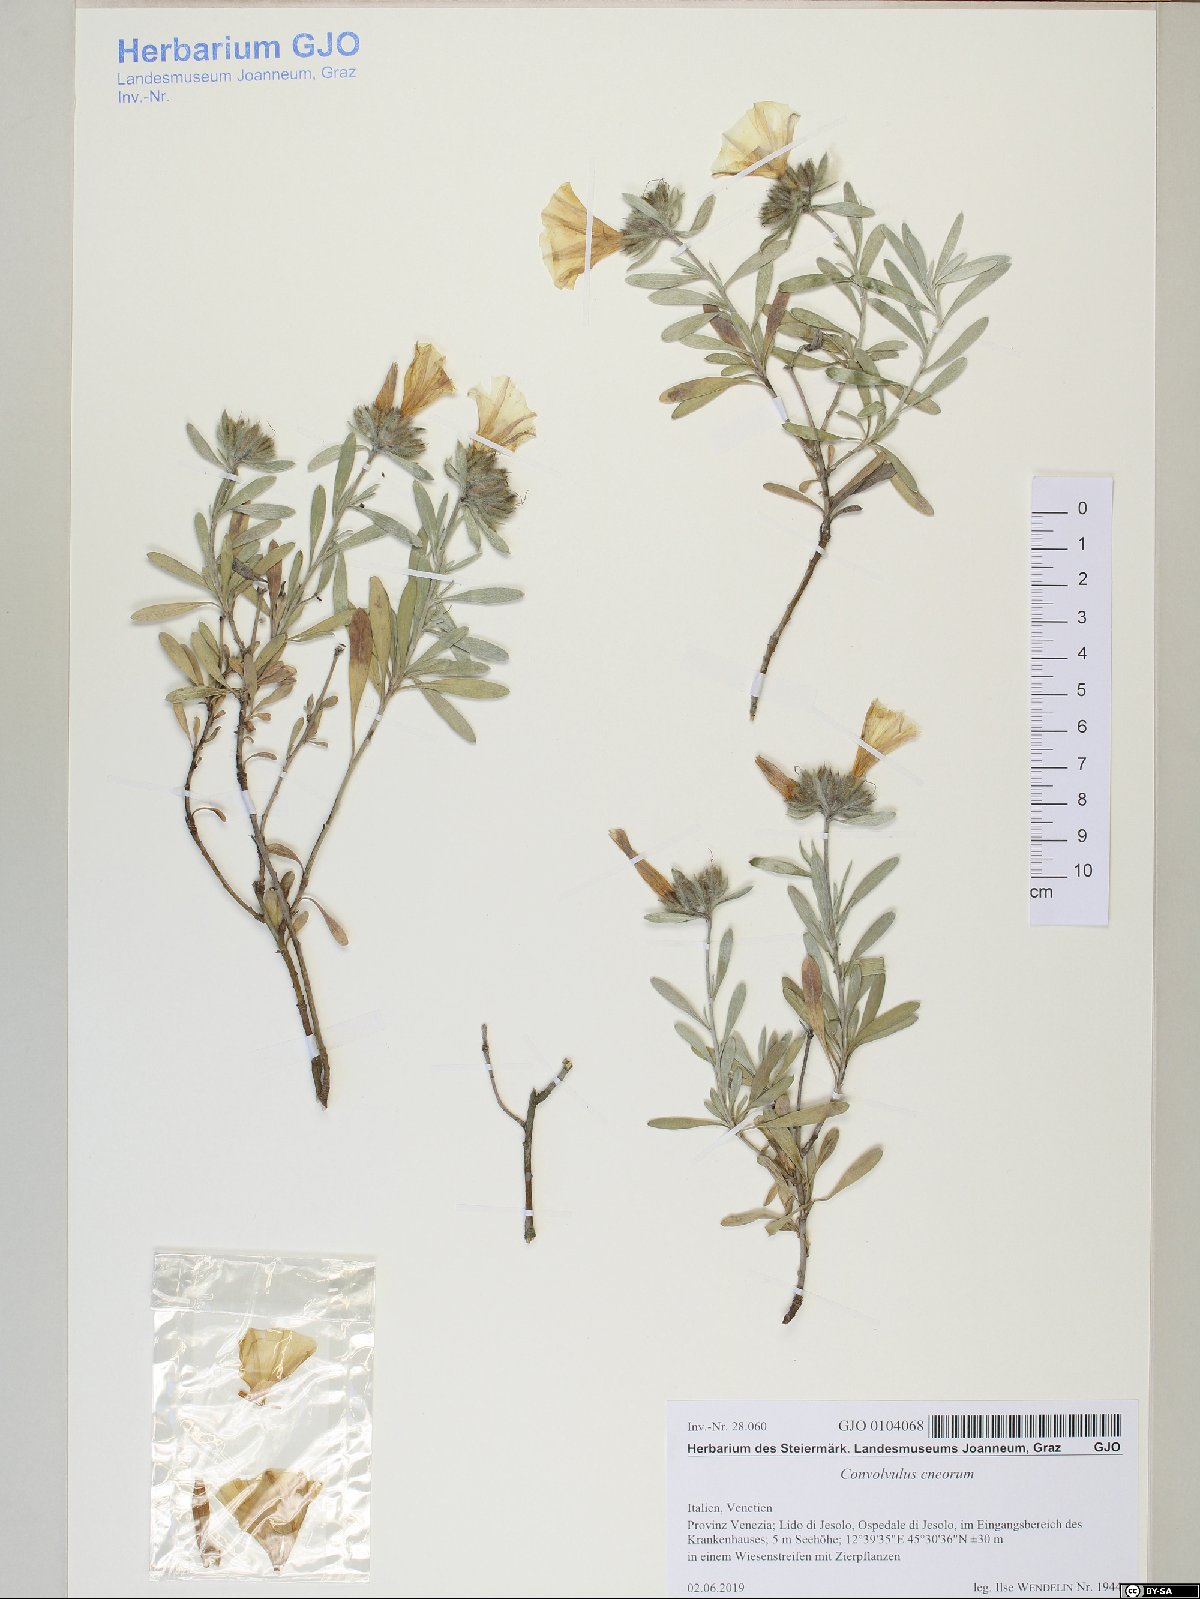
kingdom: Plantae
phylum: Tracheophyta
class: Magnoliopsida
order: Solanales
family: Convolvulaceae
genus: Convolvulus
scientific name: Convolvulus cneorum
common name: Silverbush
